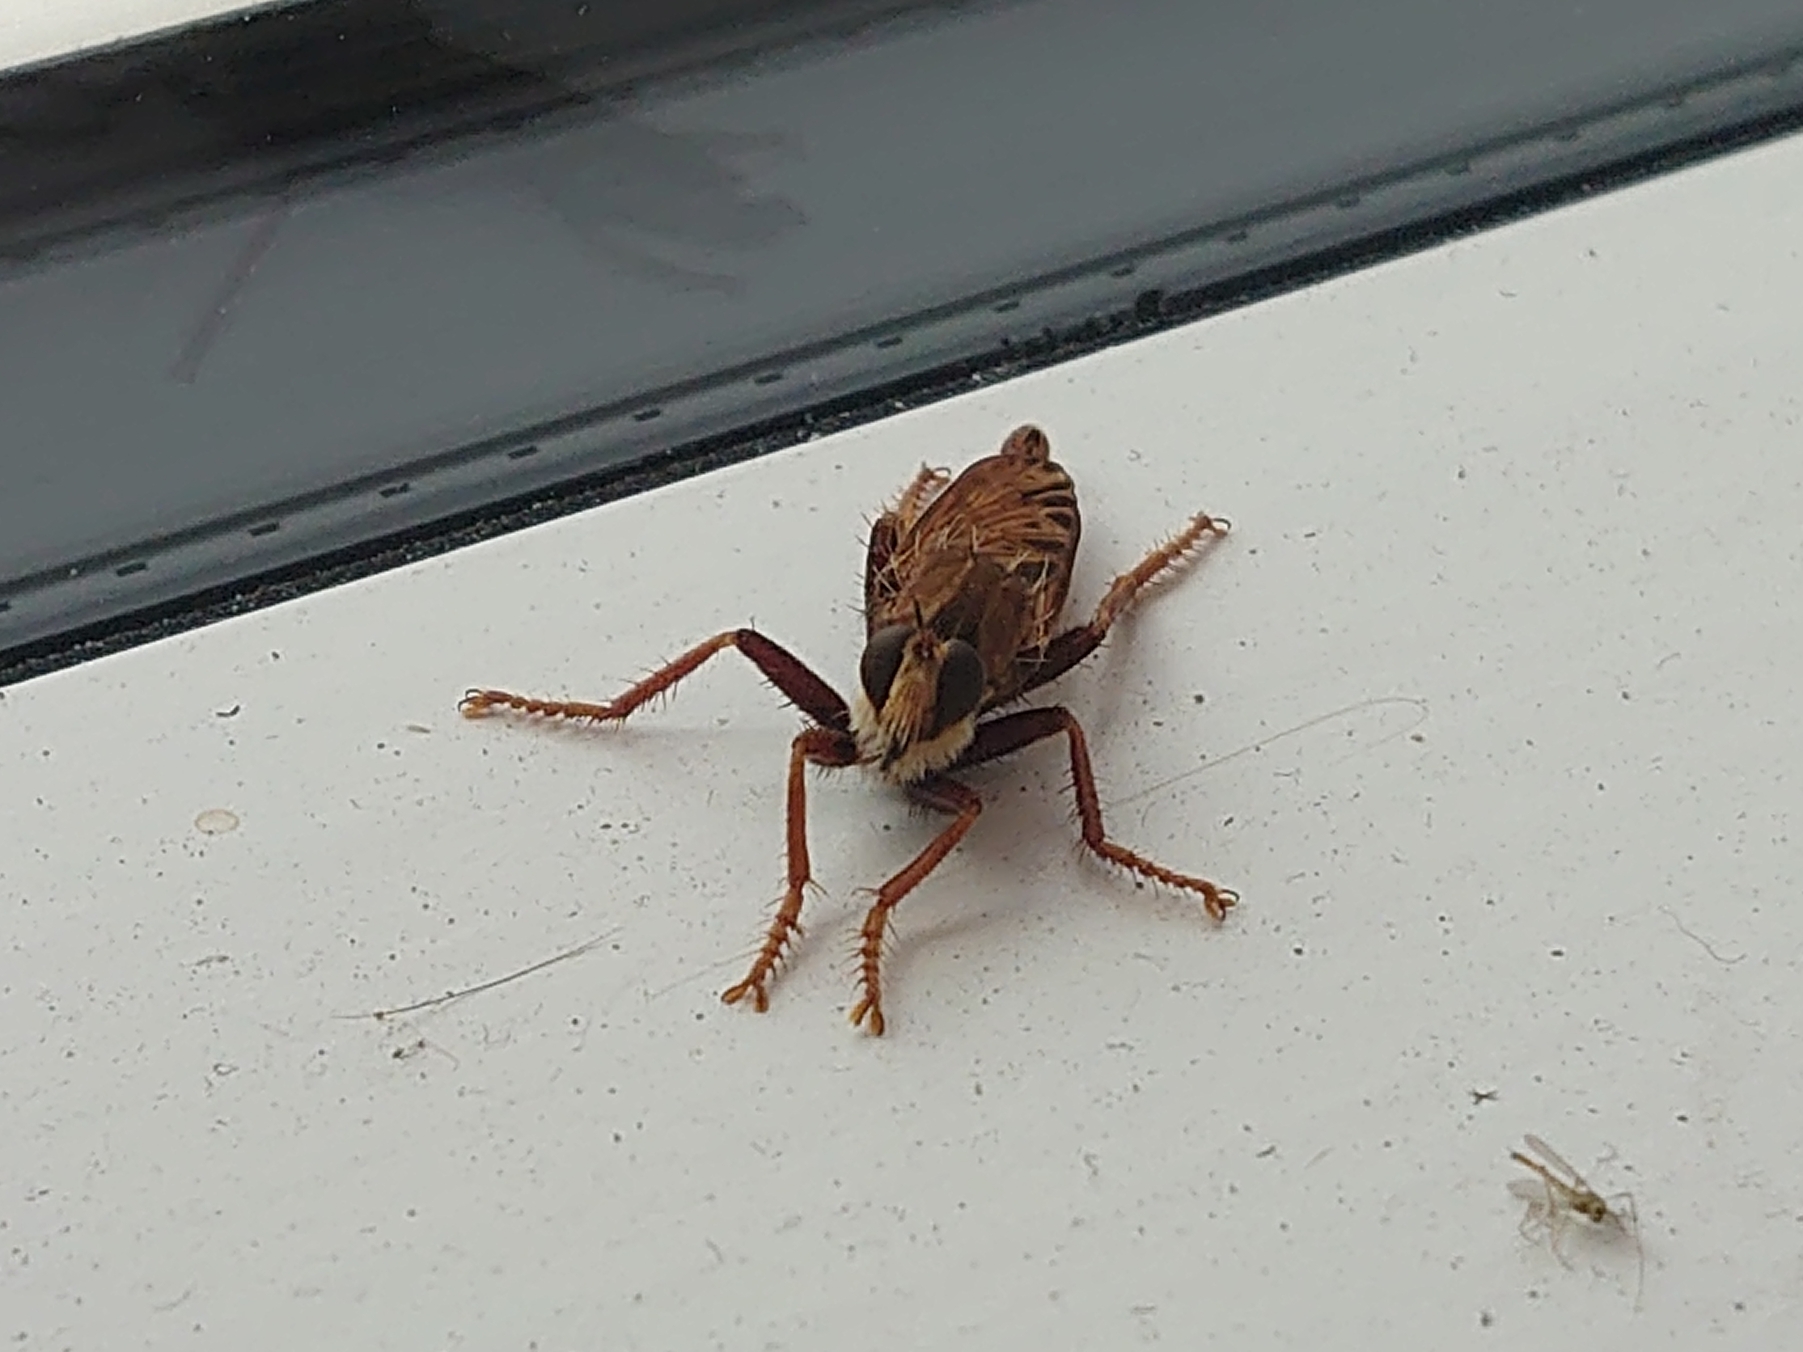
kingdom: Animalia
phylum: Arthropoda
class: Insecta
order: Diptera
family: Asilidae
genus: Asilus
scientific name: Asilus crabroniformis
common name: Stor gødningsrovflue
